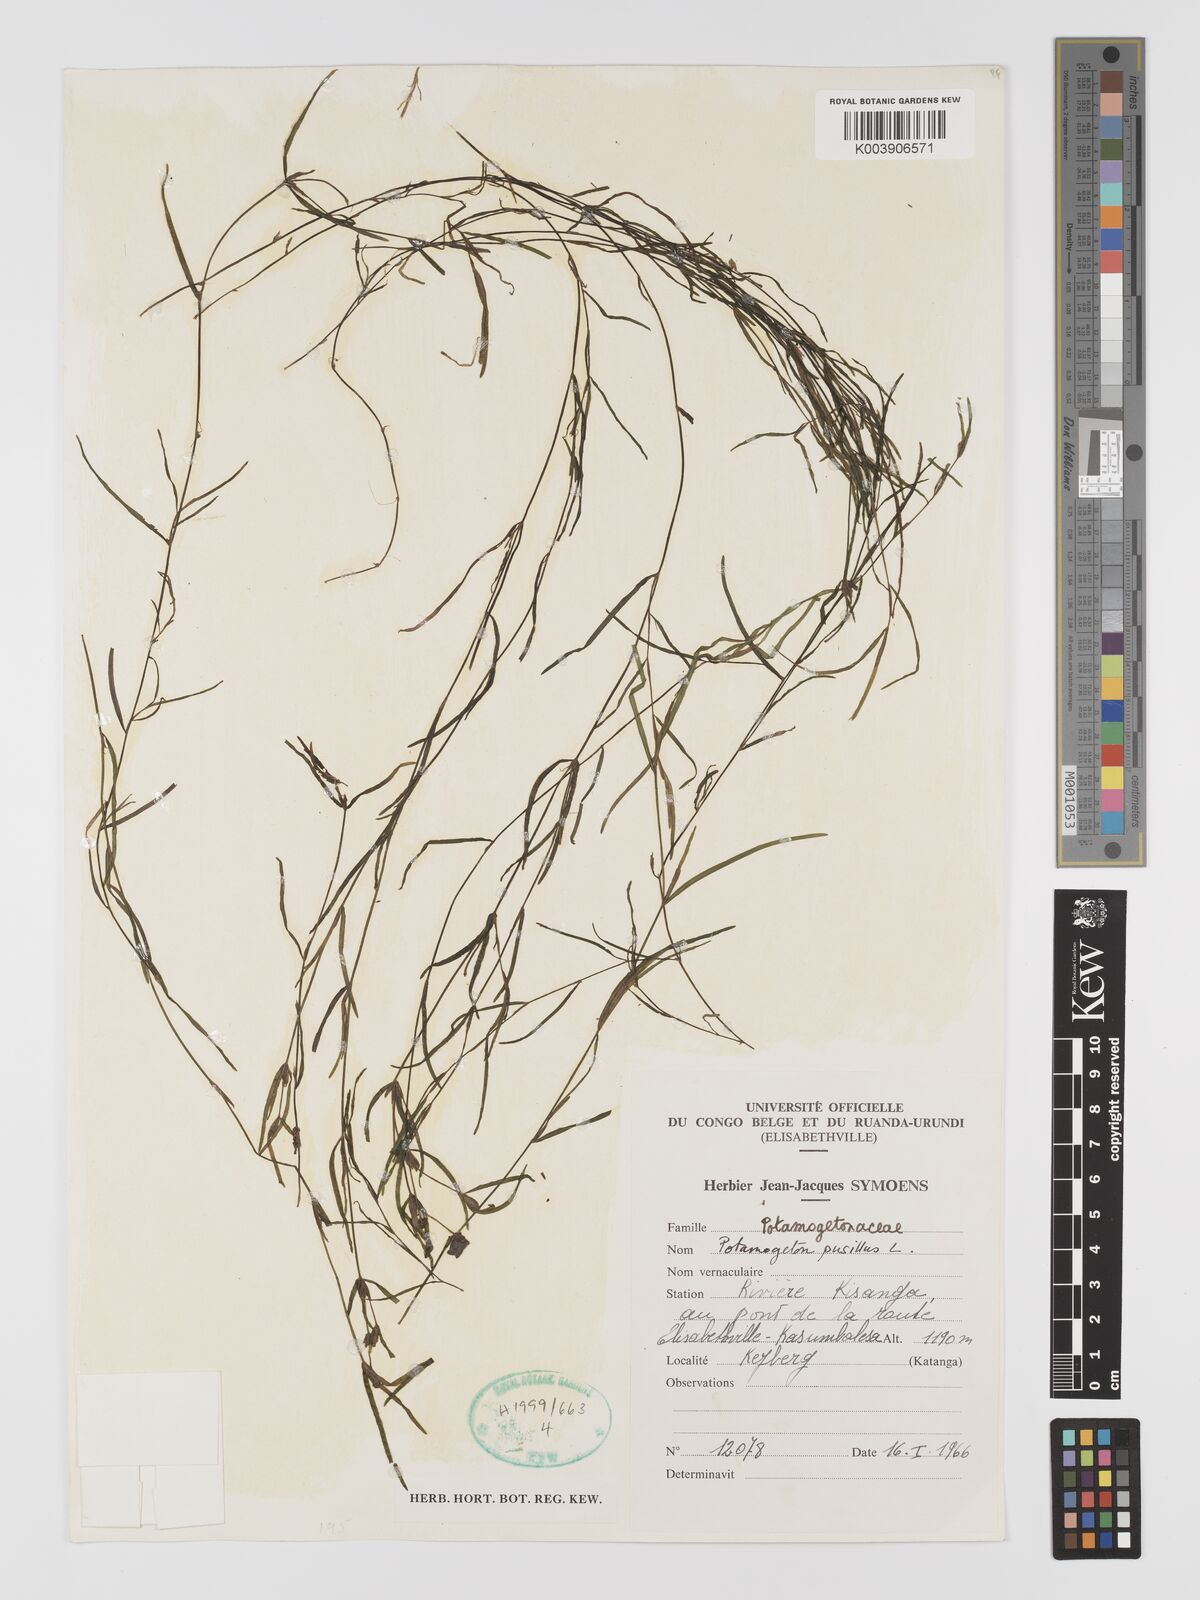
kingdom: Plantae
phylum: Tracheophyta
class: Liliopsida
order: Alismatales
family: Potamogetonaceae
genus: Potamogeton
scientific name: Potamogeton pusillus
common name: Lesser pondweed
